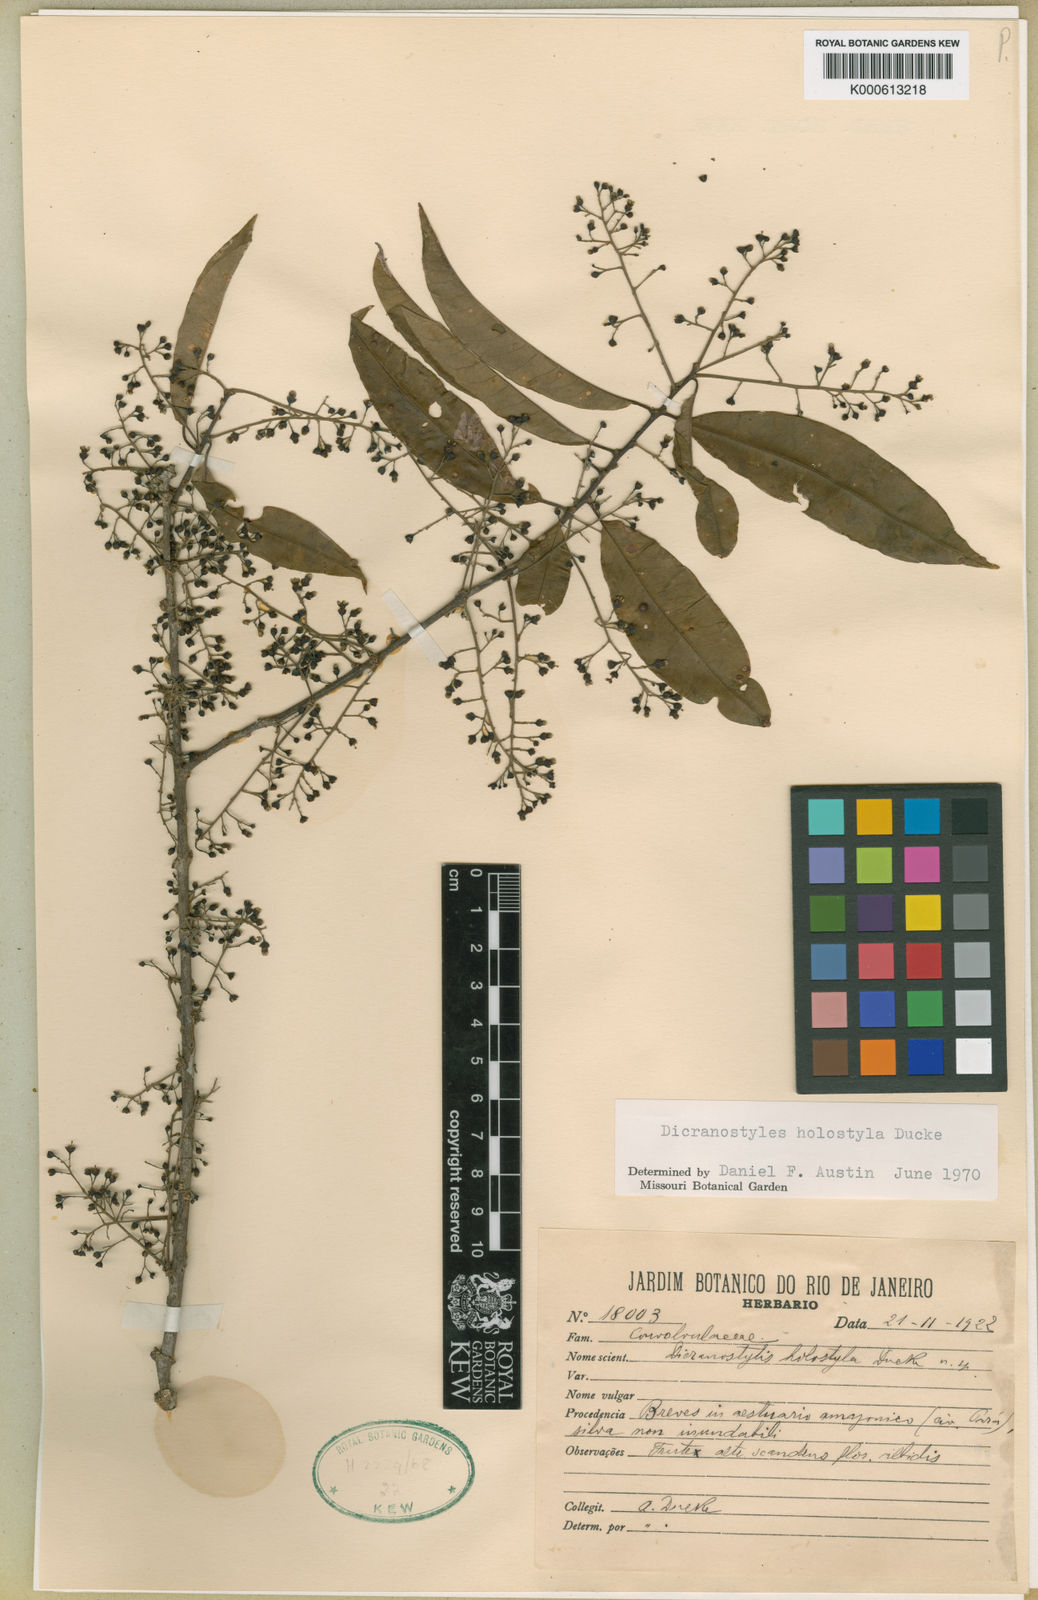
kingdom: Plantae
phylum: Tracheophyta
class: Magnoliopsida
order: Solanales
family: Convolvulaceae
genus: Dicranostyles
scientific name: Dicranostyles holostyla
